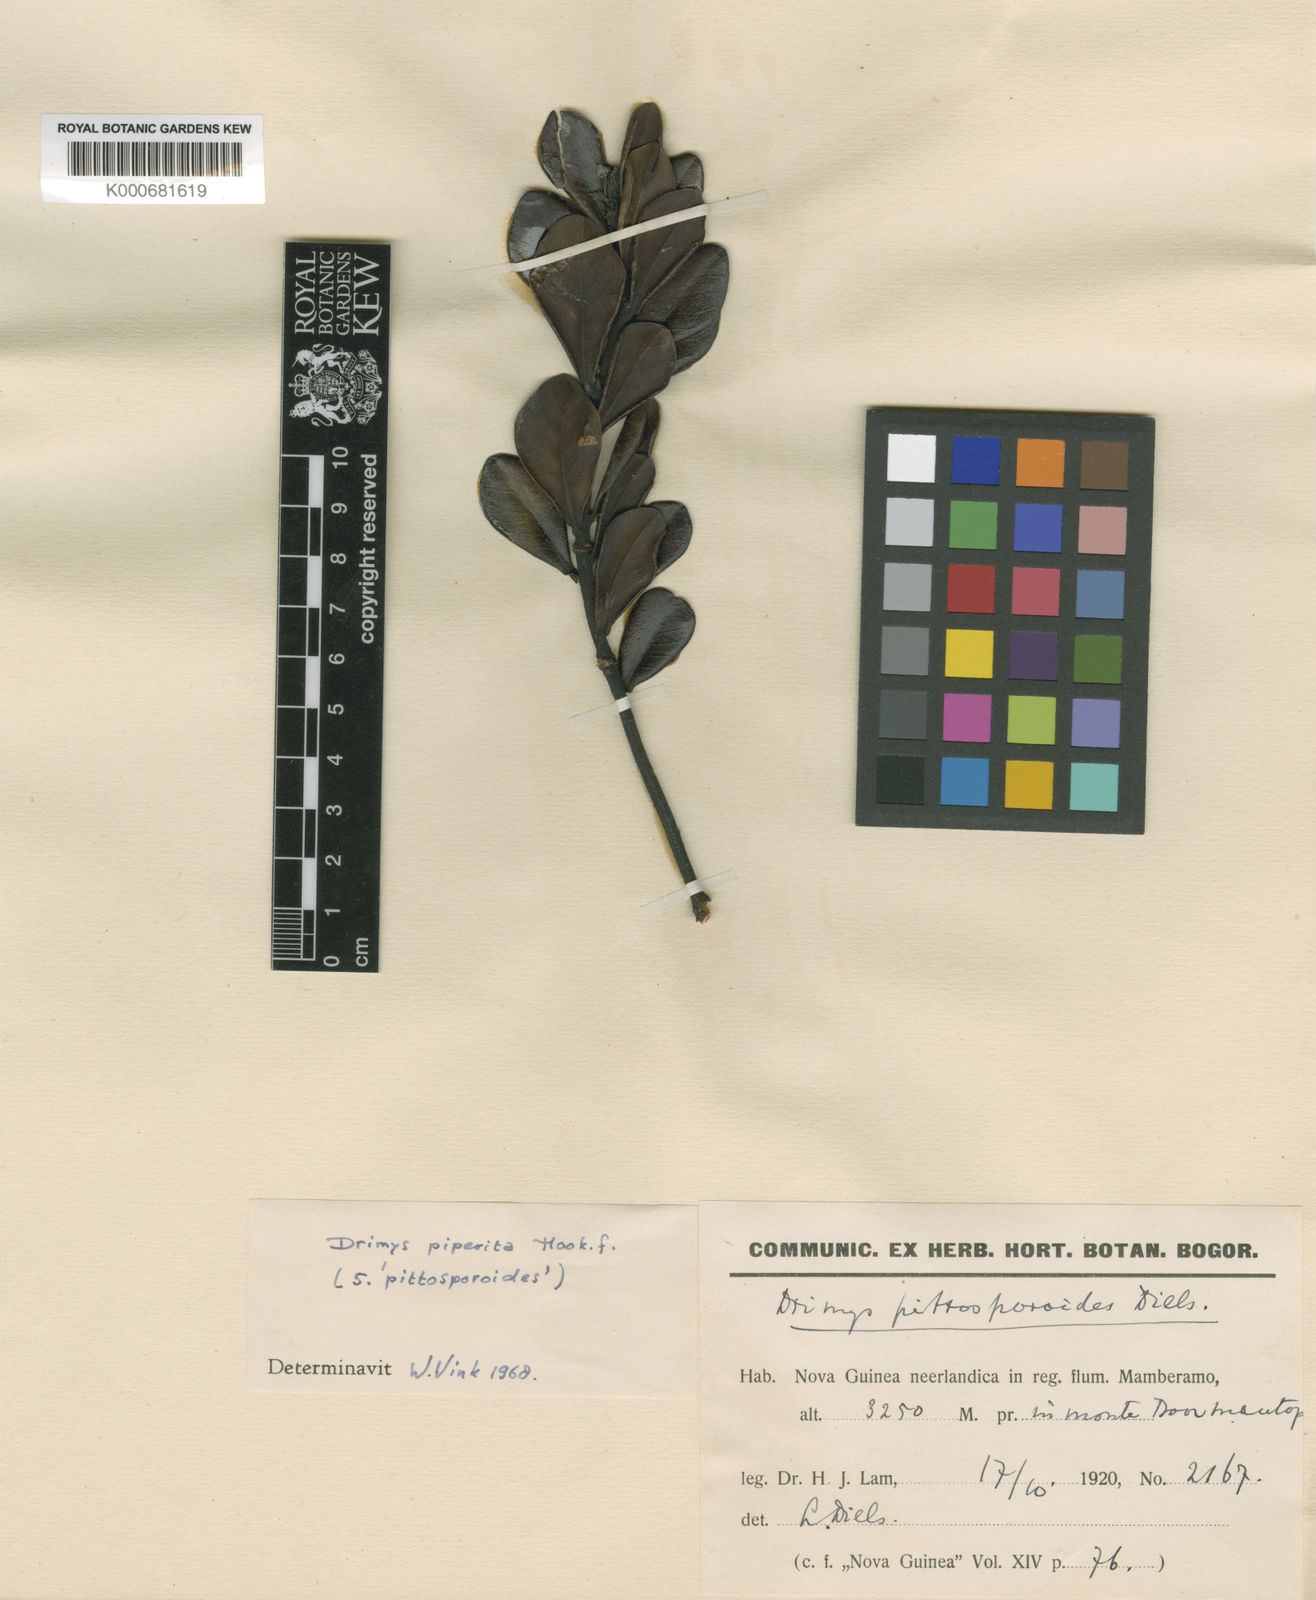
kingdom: Plantae
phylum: Tracheophyta
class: Magnoliopsida
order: Canellales
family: Winteraceae
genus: Drimys
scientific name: Drimys piperita
